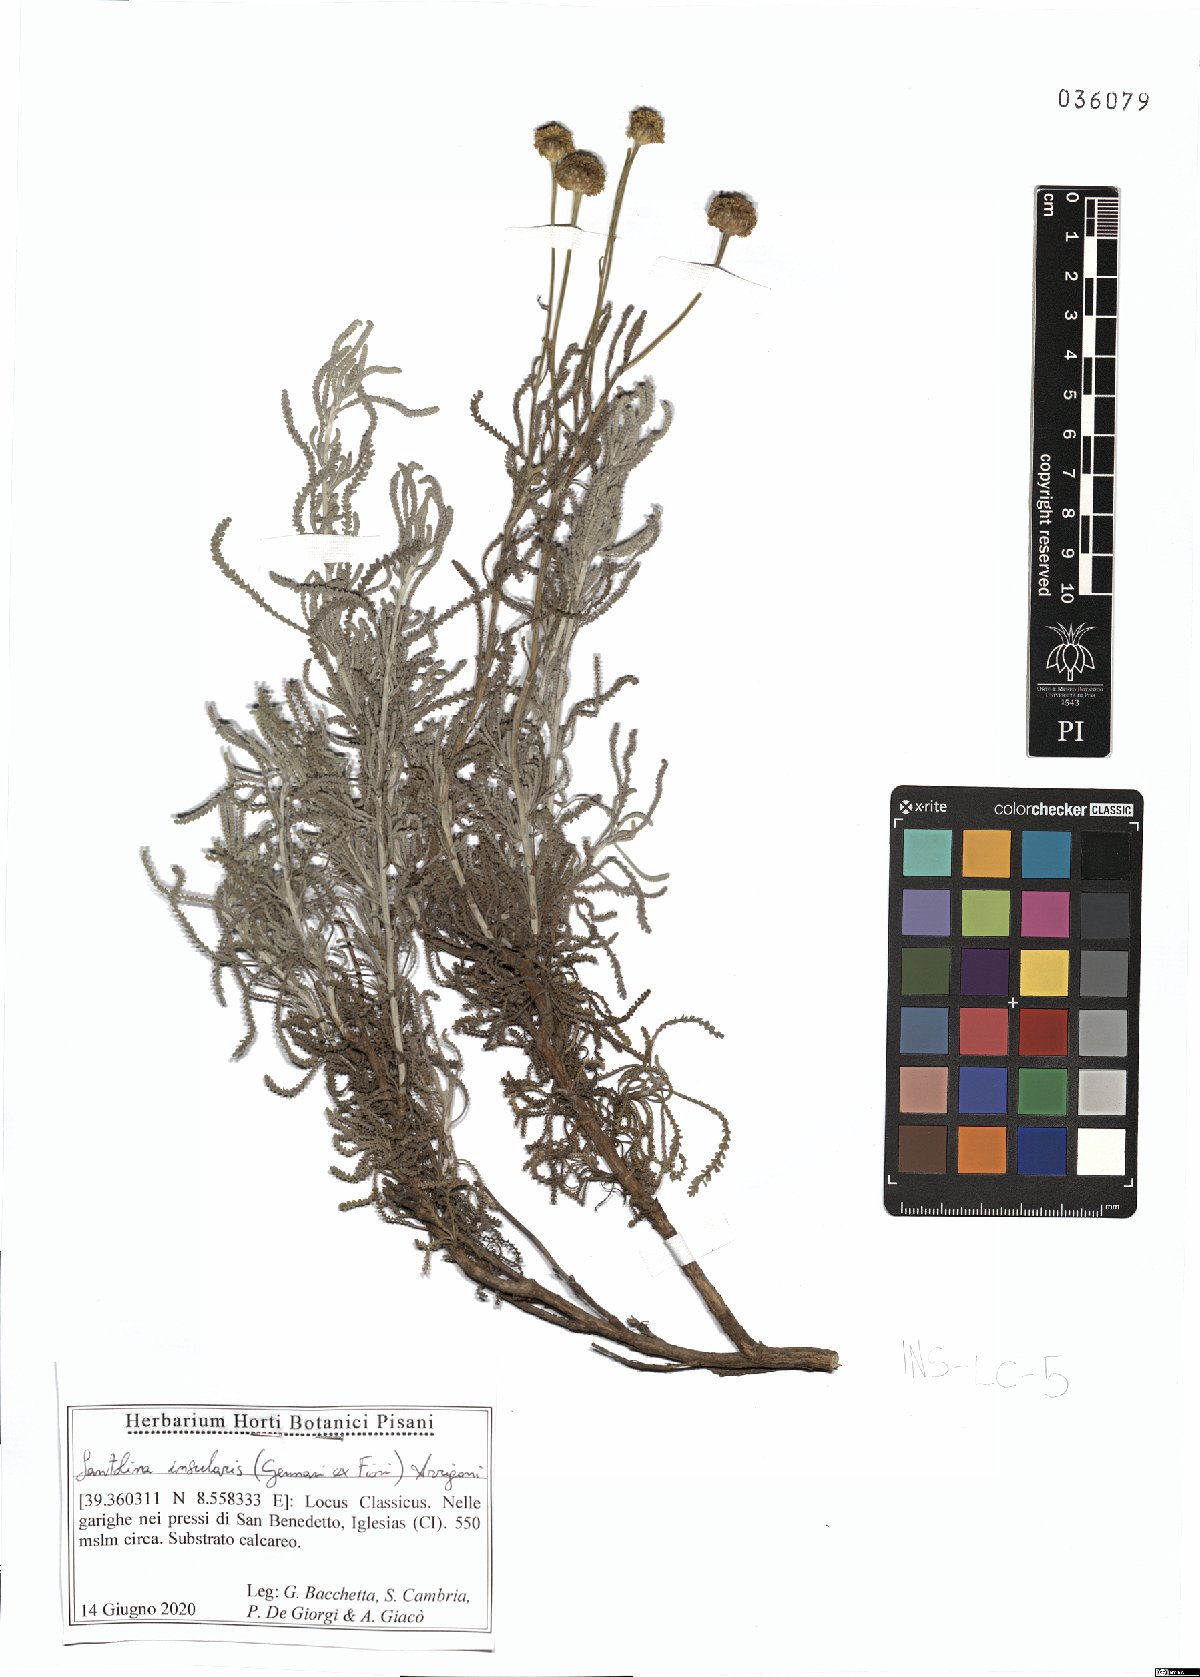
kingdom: Plantae
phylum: Tracheophyta
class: Magnoliopsida
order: Asterales
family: Asteraceae
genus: Santolina
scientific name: Santolina insularis
